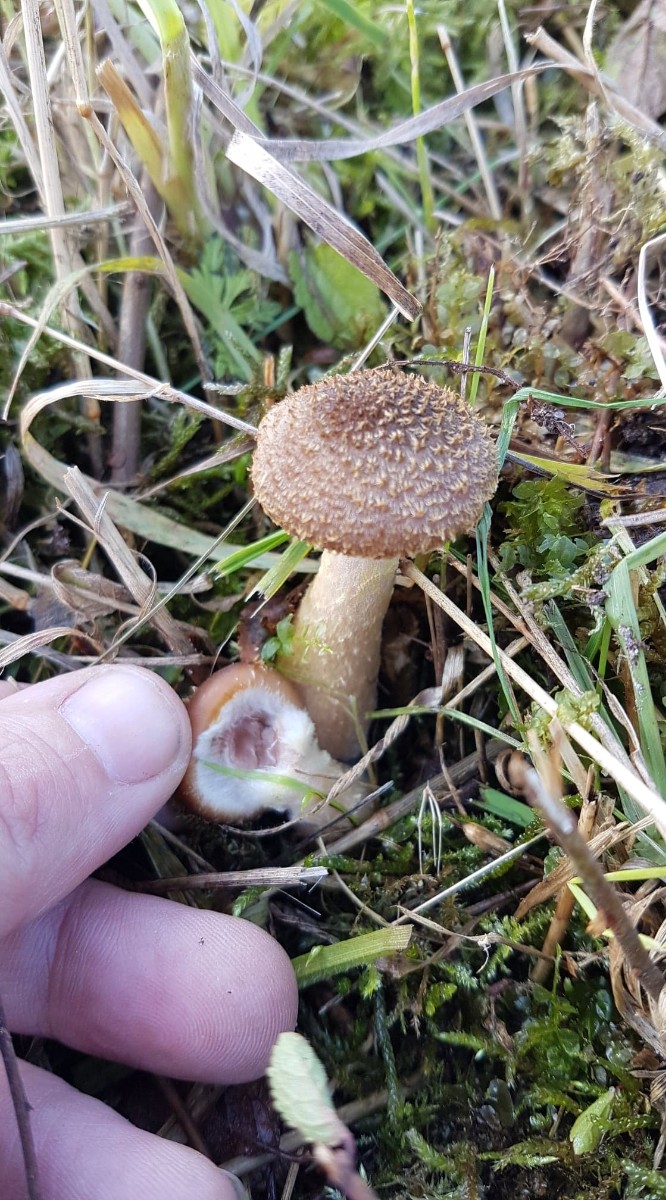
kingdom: Fungi
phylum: Basidiomycota
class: Agaricomycetes
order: Agaricales
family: Physalacriaceae
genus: Armillaria
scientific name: Armillaria lutea
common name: køllestokket honningsvamp
